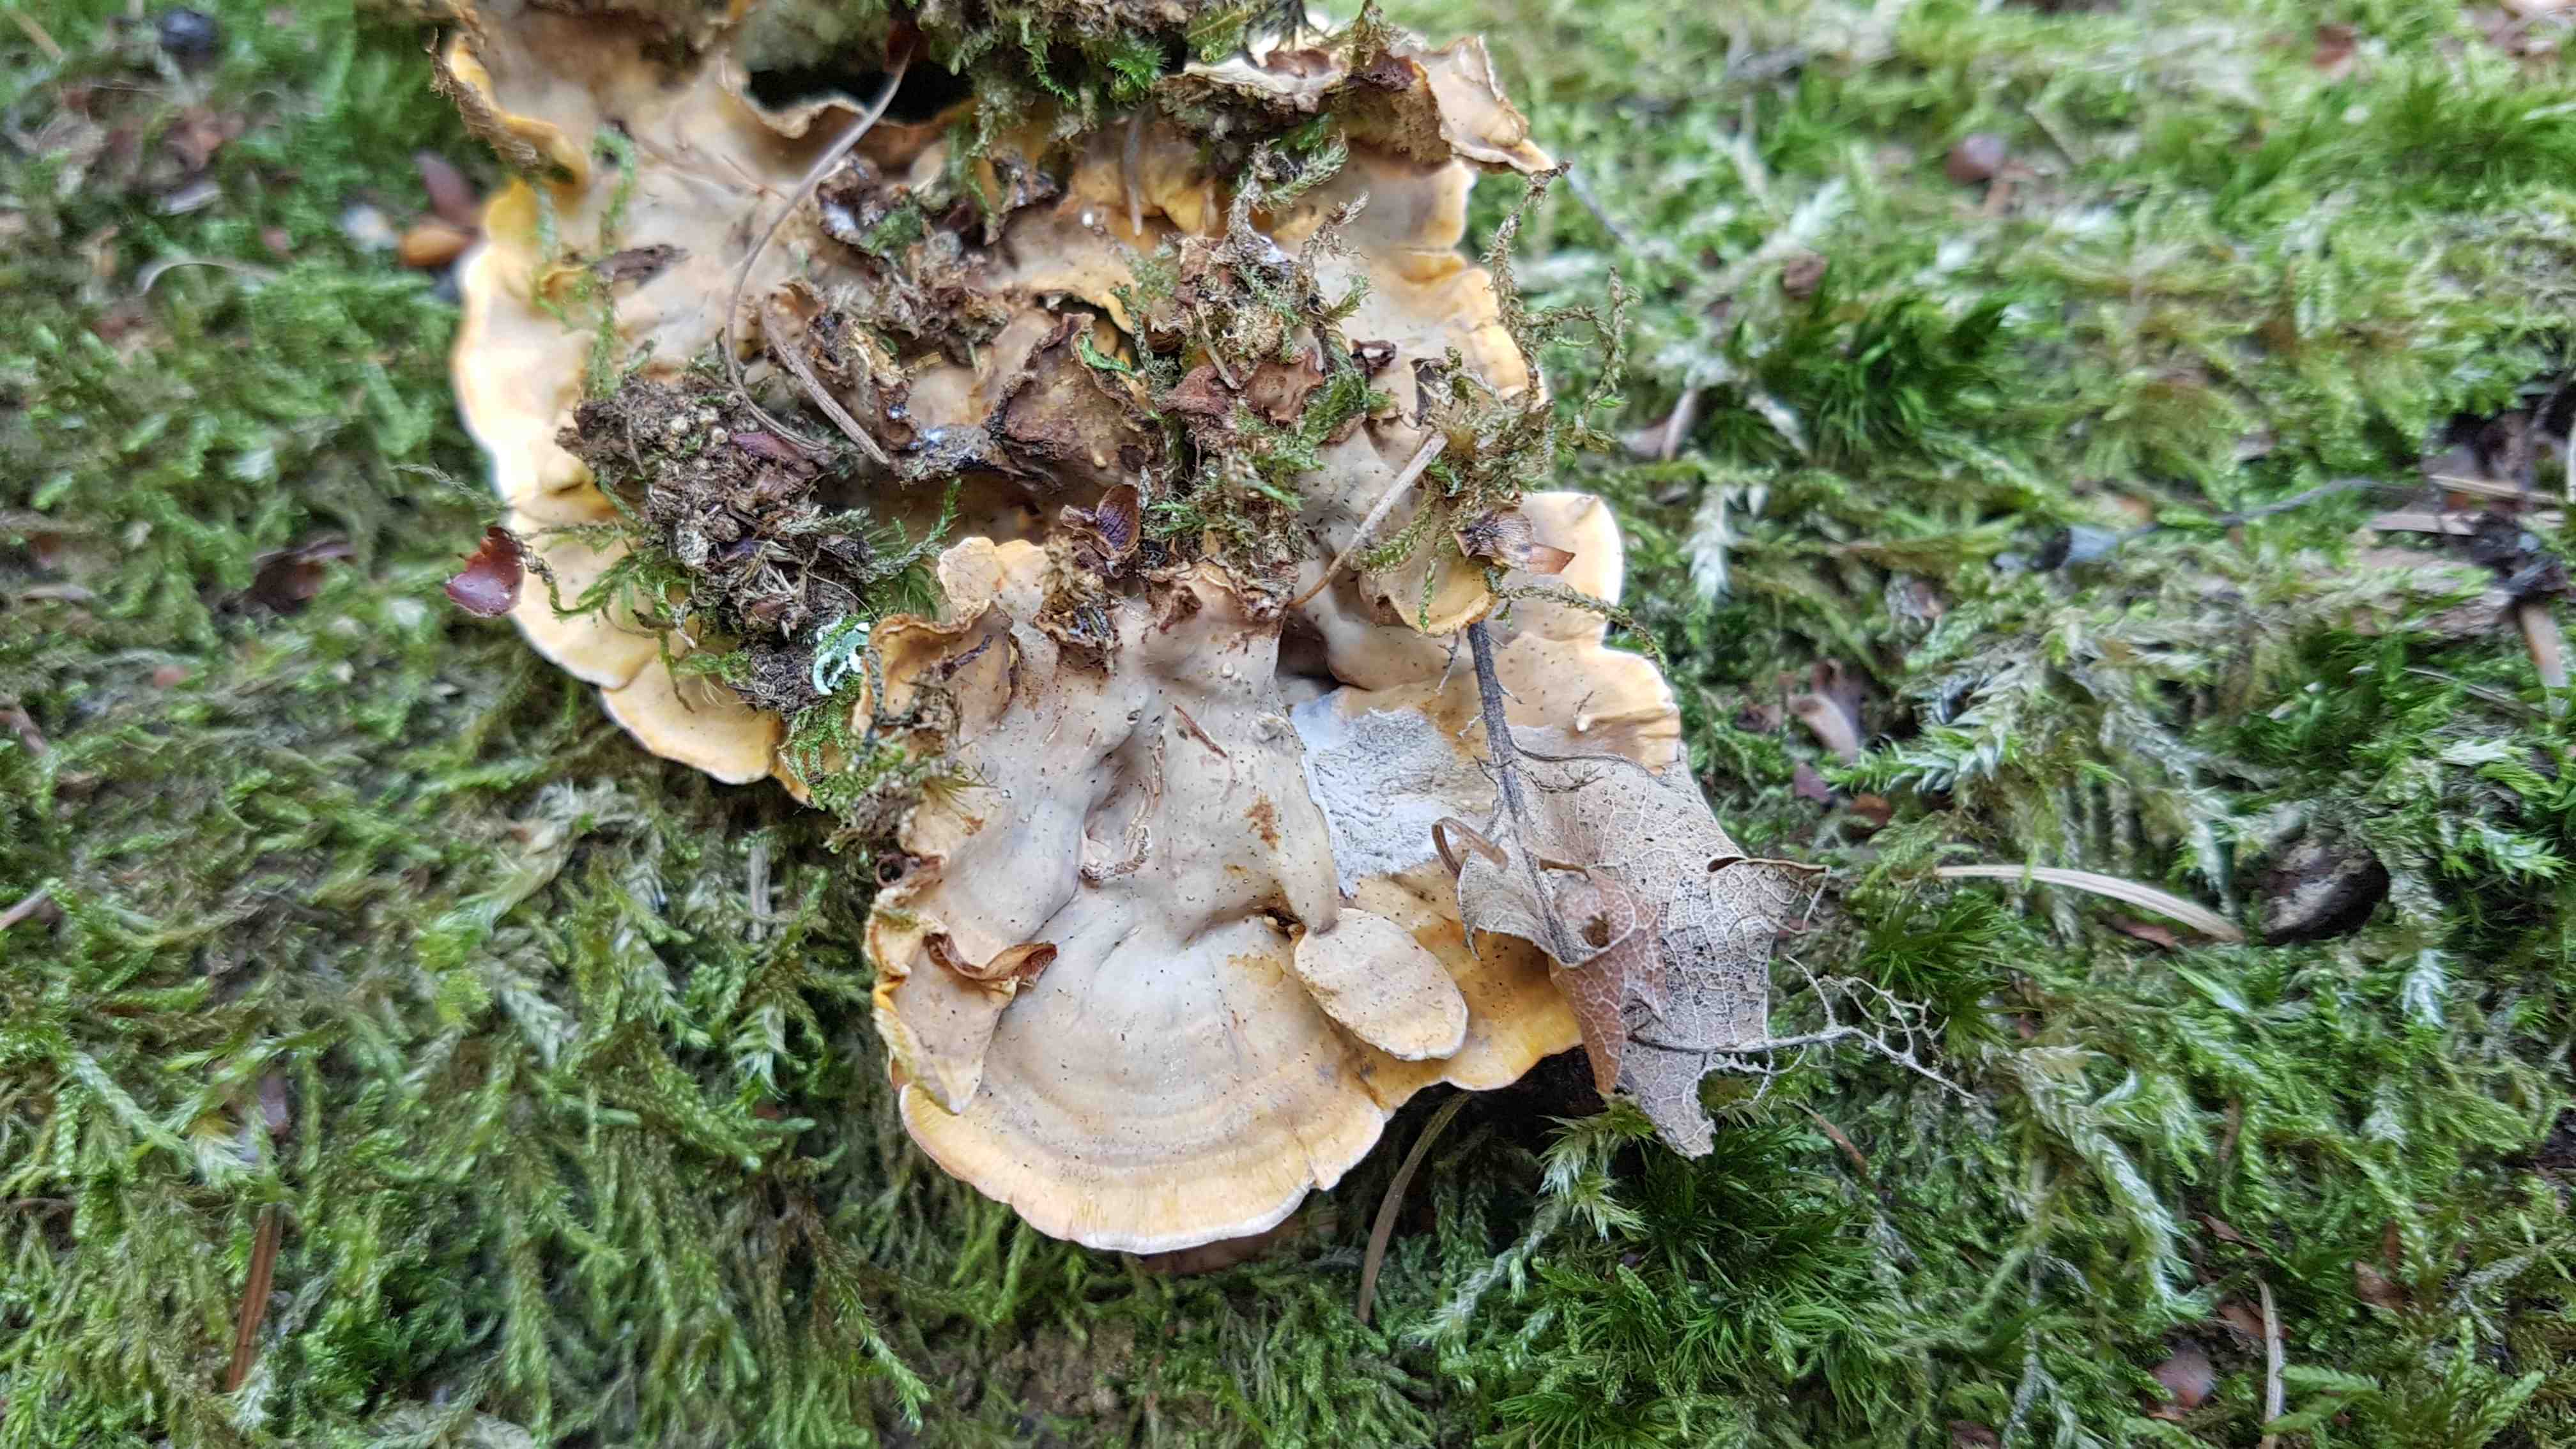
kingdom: Fungi
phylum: Basidiomycota
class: Agaricomycetes
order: Russulales
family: Stereaceae
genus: Stereum
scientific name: Stereum hirsutum
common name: håret lædersvamp
